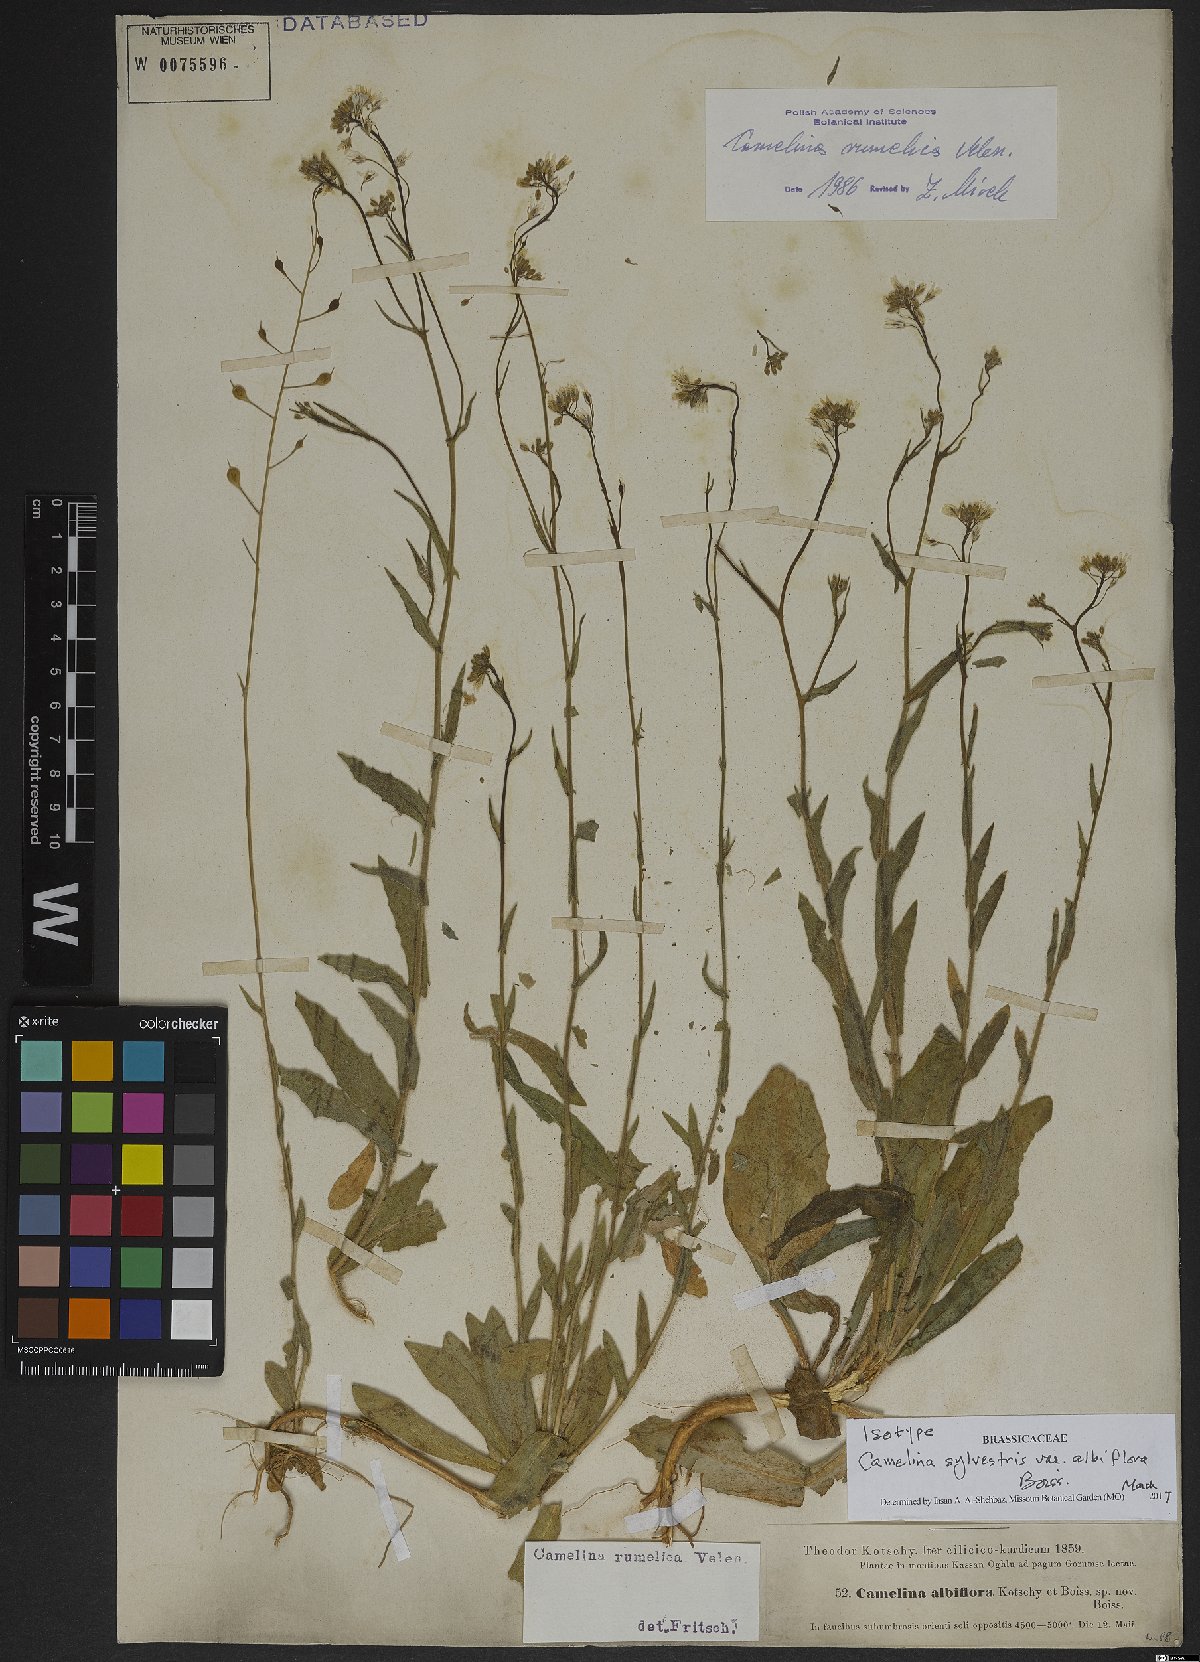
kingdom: Plantae
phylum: Tracheophyta
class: Magnoliopsida
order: Brassicales
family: Brassicaceae
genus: Camelina
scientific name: Camelina rumelica
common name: Graceful false flax
